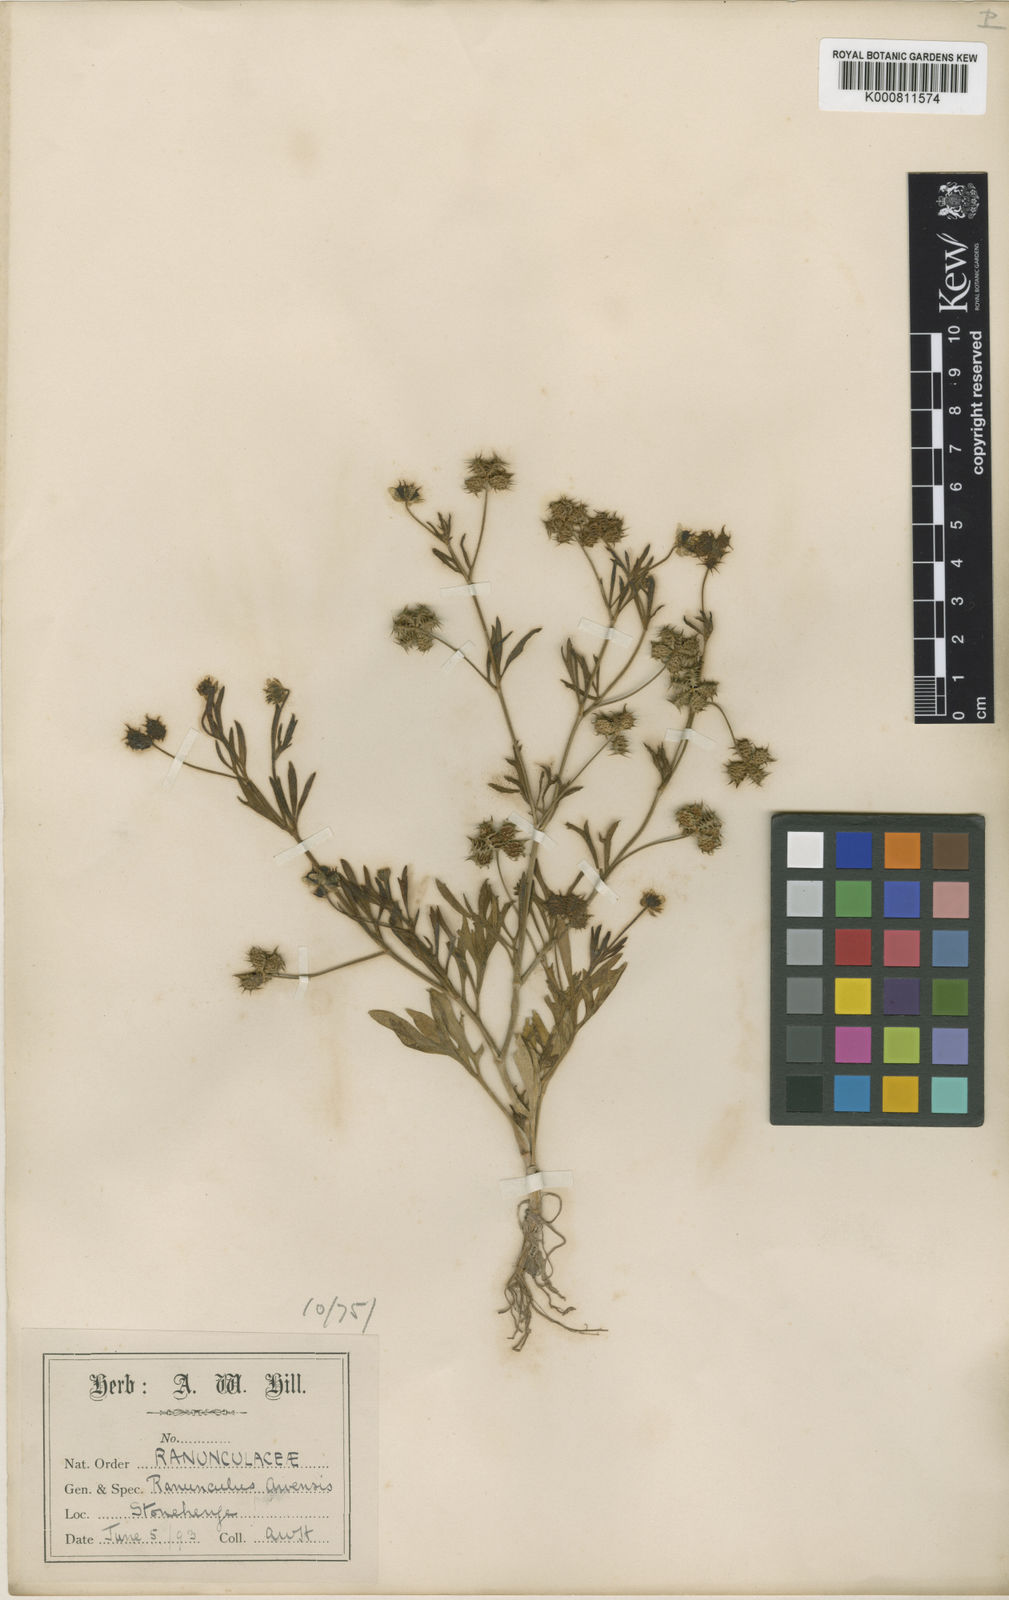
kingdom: Plantae
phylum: Tracheophyta
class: Magnoliopsida
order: Ranunculales
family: Ranunculaceae
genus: Ranunculus
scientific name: Ranunculus arvensis
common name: Corn buttercup
